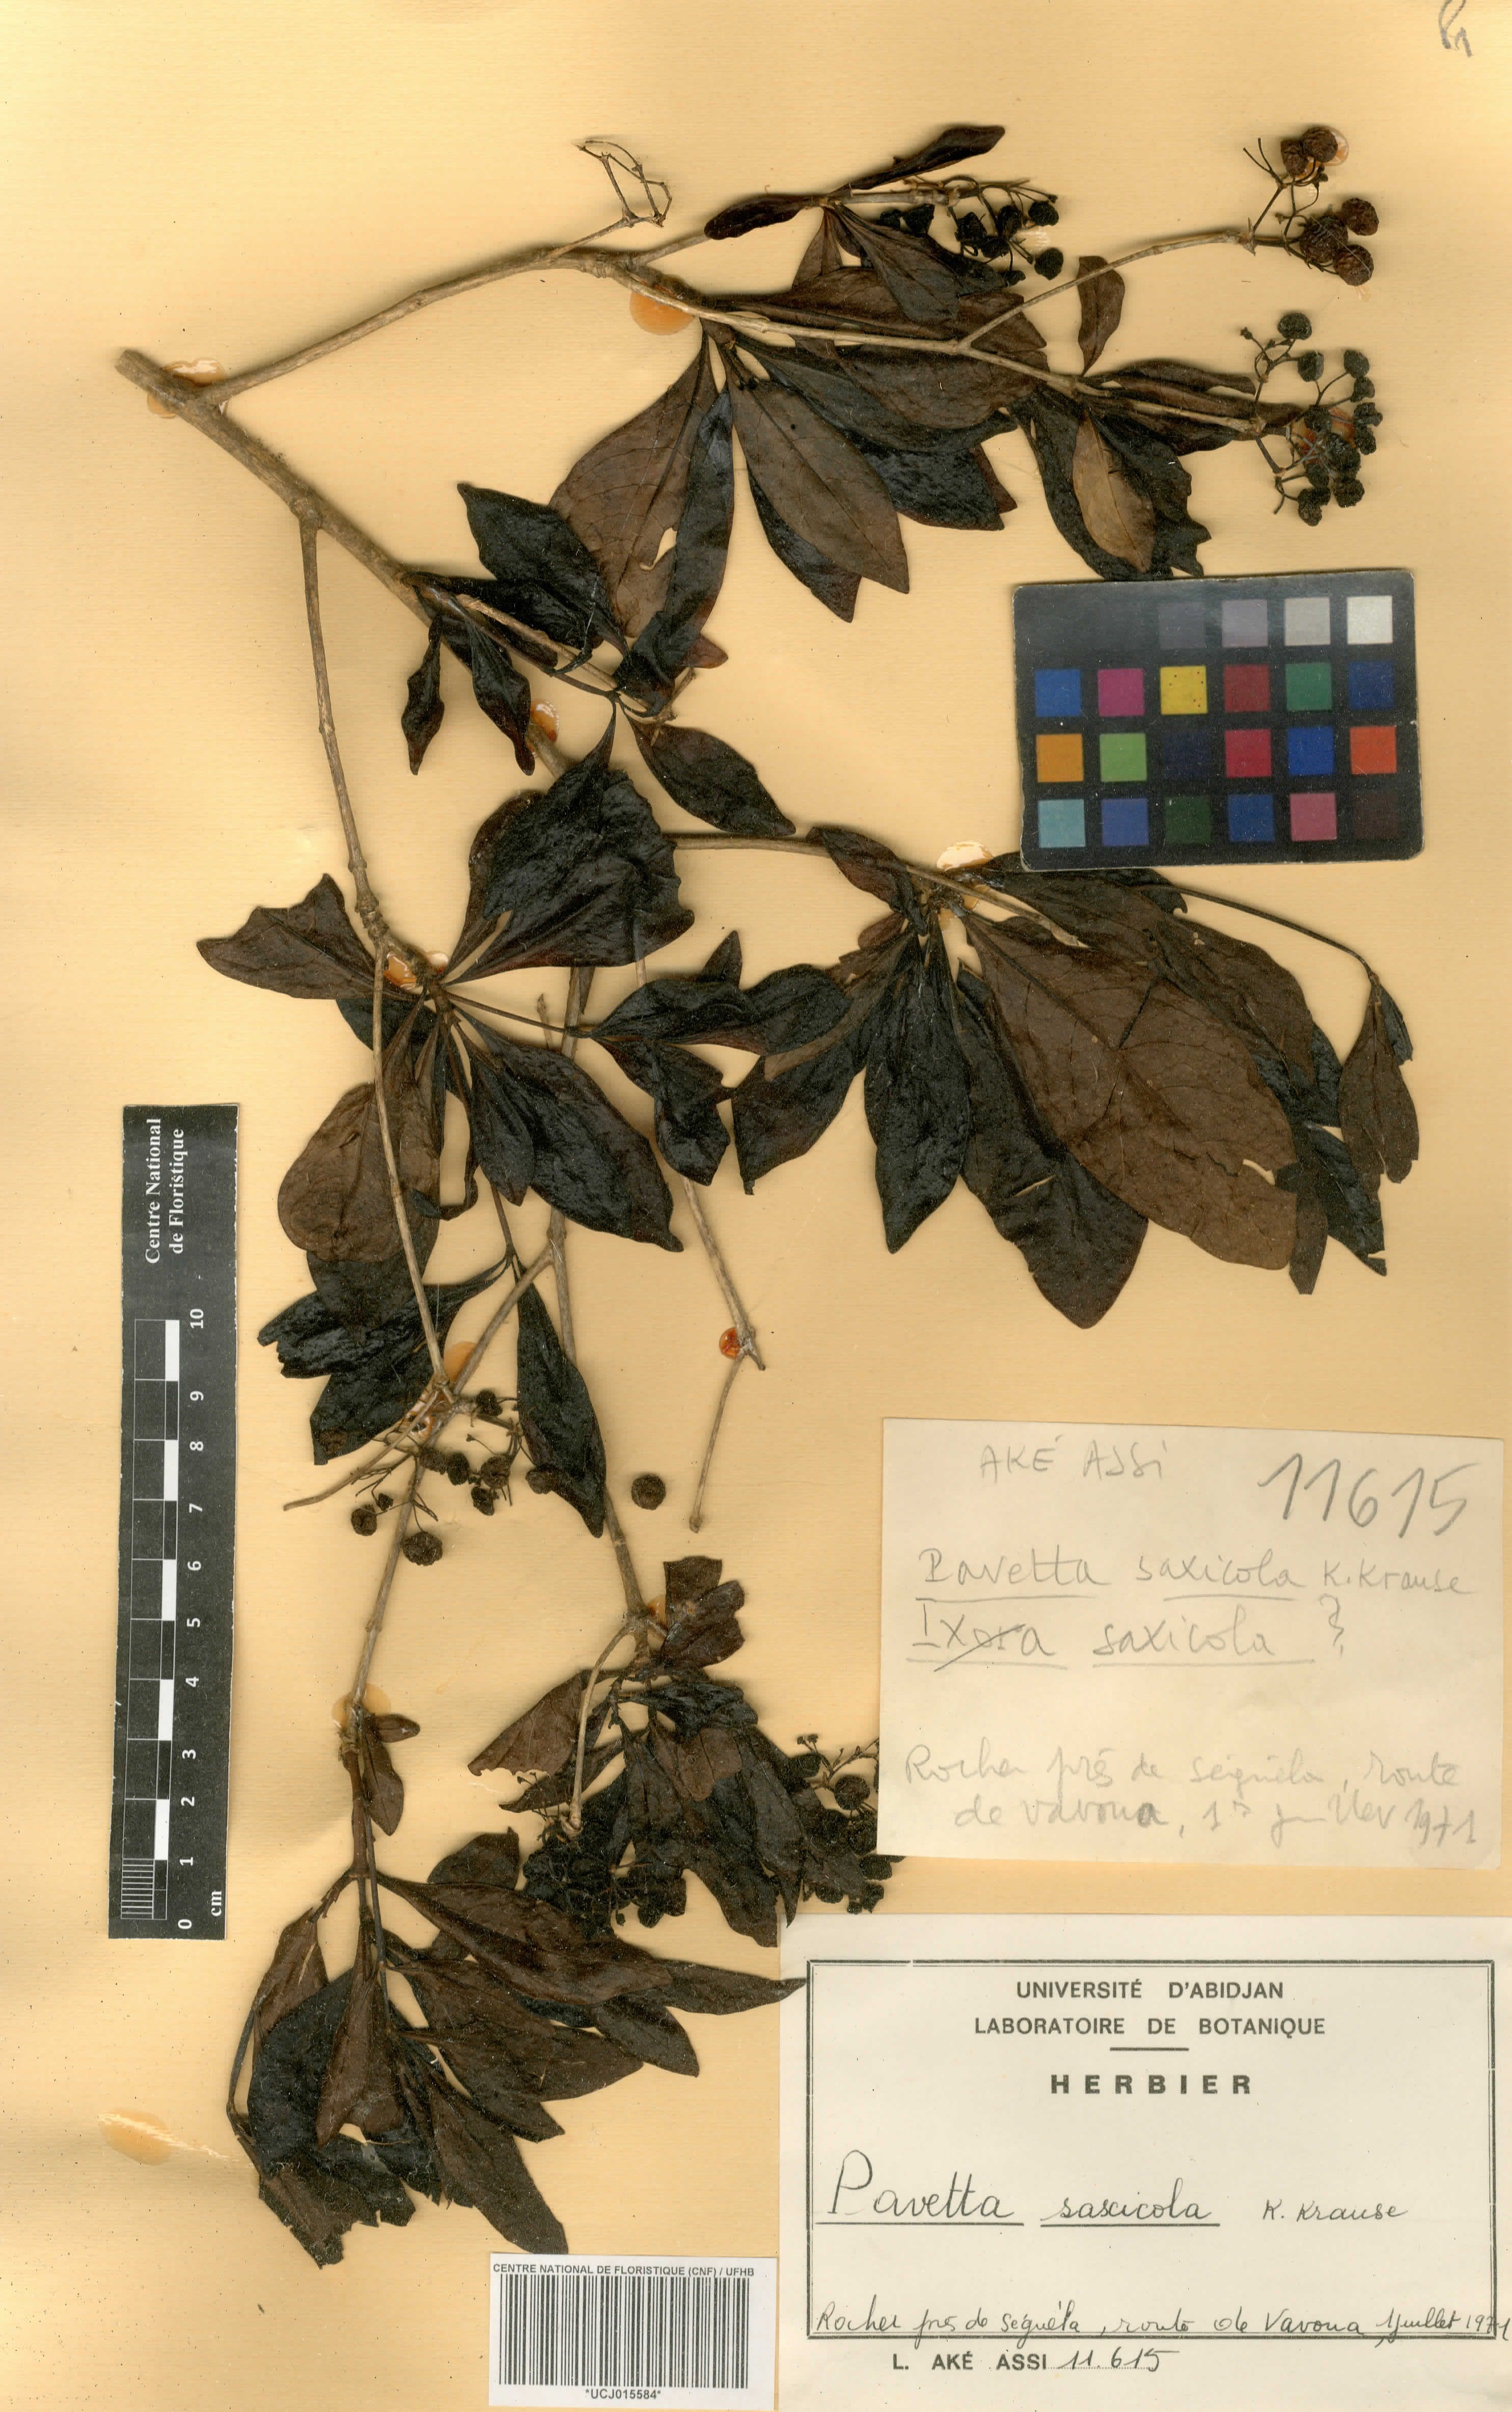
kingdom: Plantae
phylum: Tracheophyta
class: Magnoliopsida
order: Gentianales
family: Rubiaceae
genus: Pavetta
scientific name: Pavetta gardeniifolia
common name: Common brides-bush
